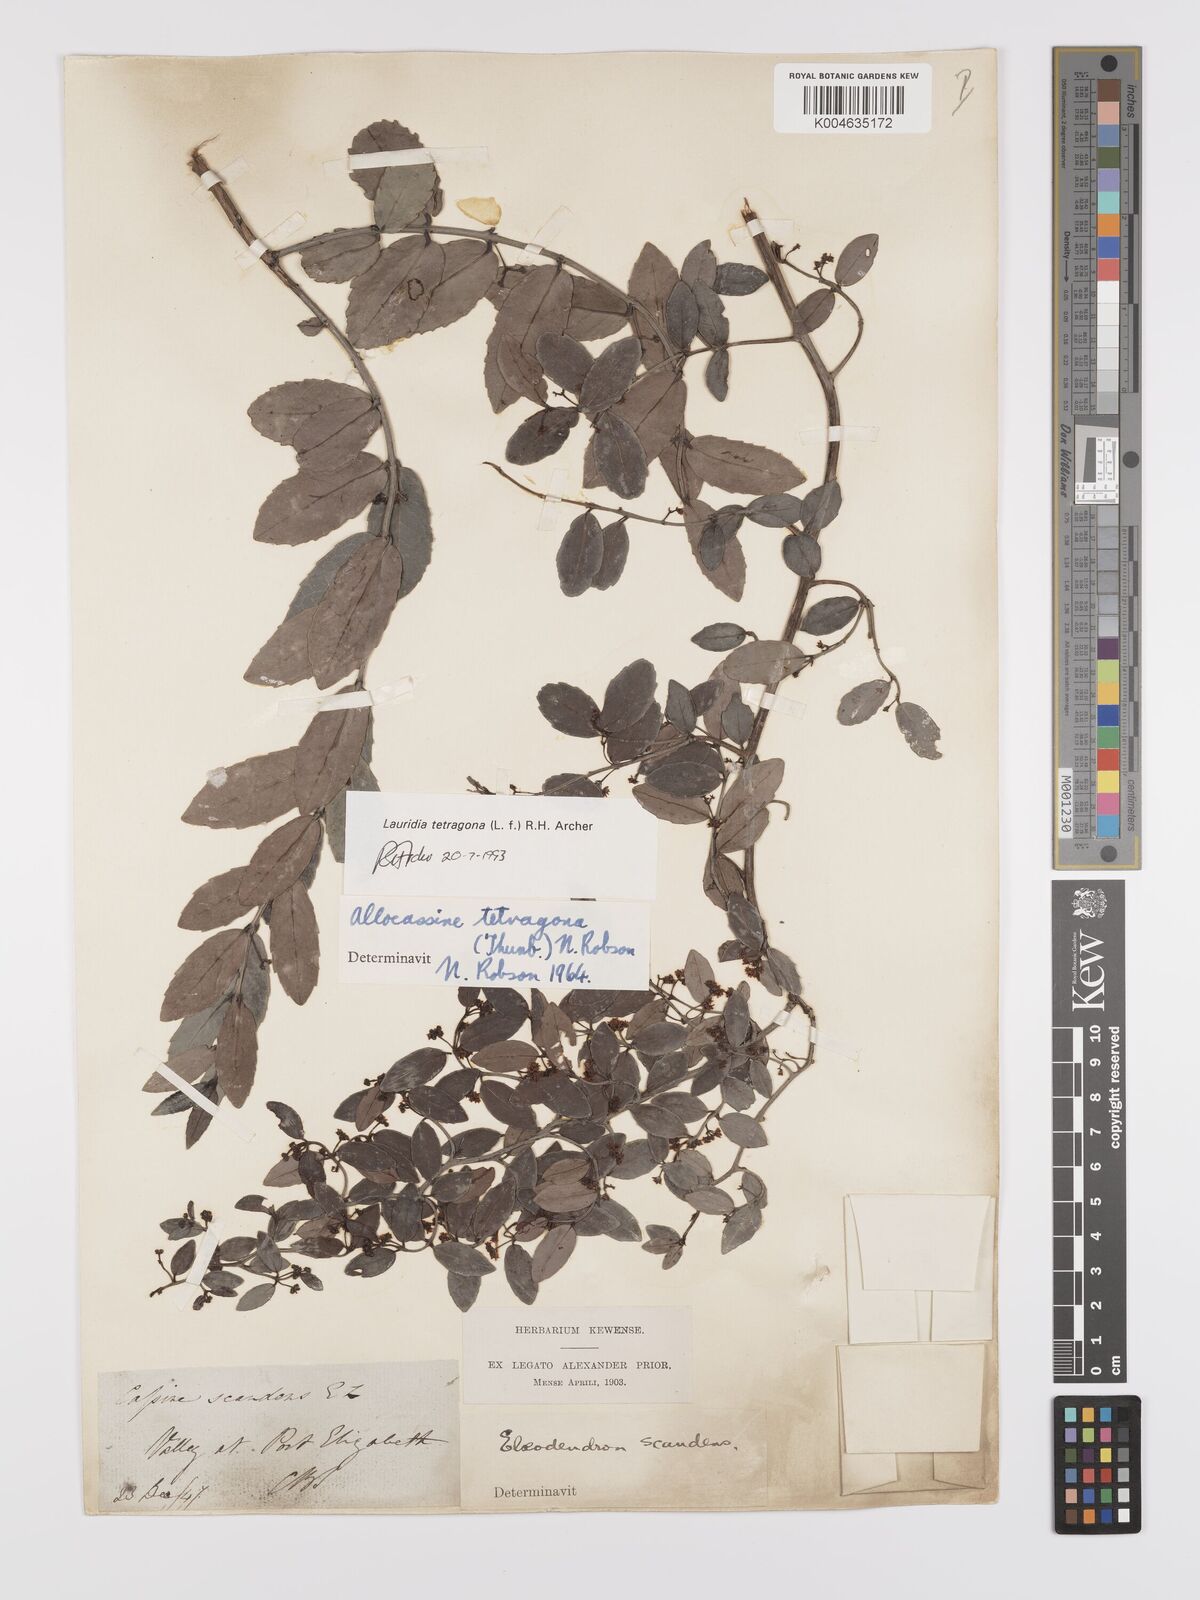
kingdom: Plantae
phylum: Tracheophyta
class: Magnoliopsida
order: Celastrales
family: Celastraceae
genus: Lauridia
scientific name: Lauridia tetragona
